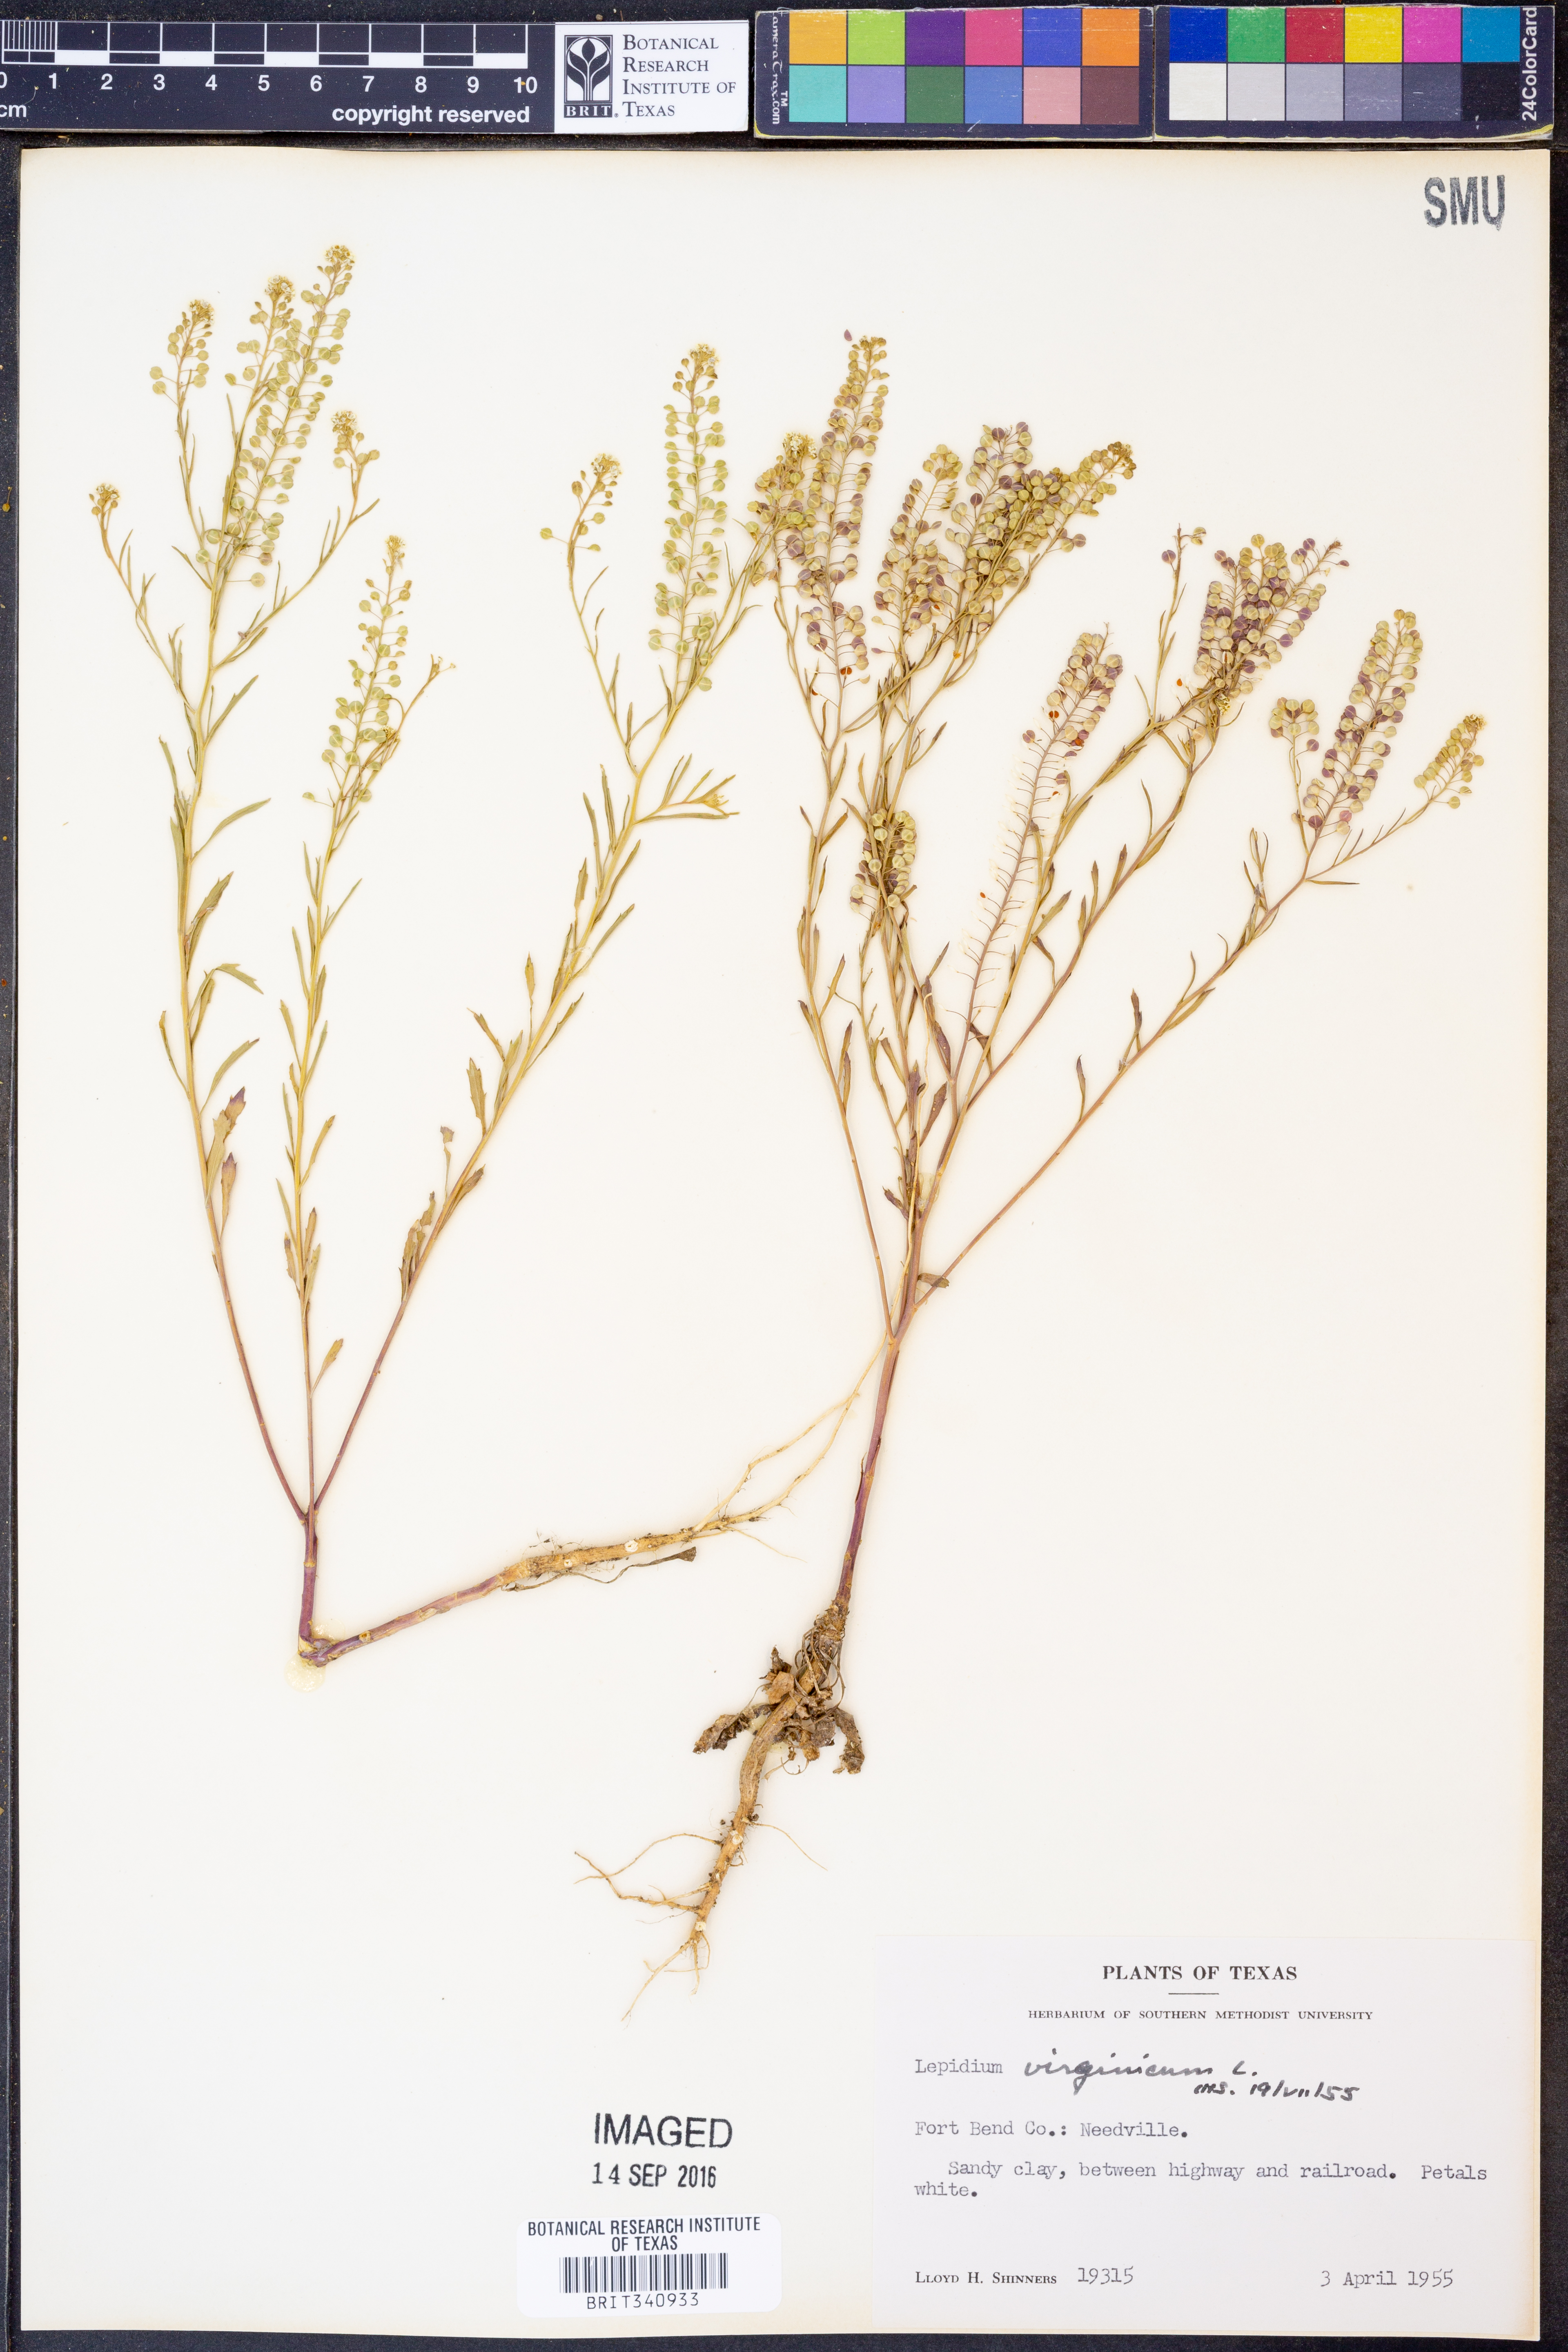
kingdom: Plantae
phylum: Tracheophyta
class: Magnoliopsida
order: Brassicales
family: Brassicaceae
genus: Lepidium
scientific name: Lepidium virginicum
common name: Least pepperwort
